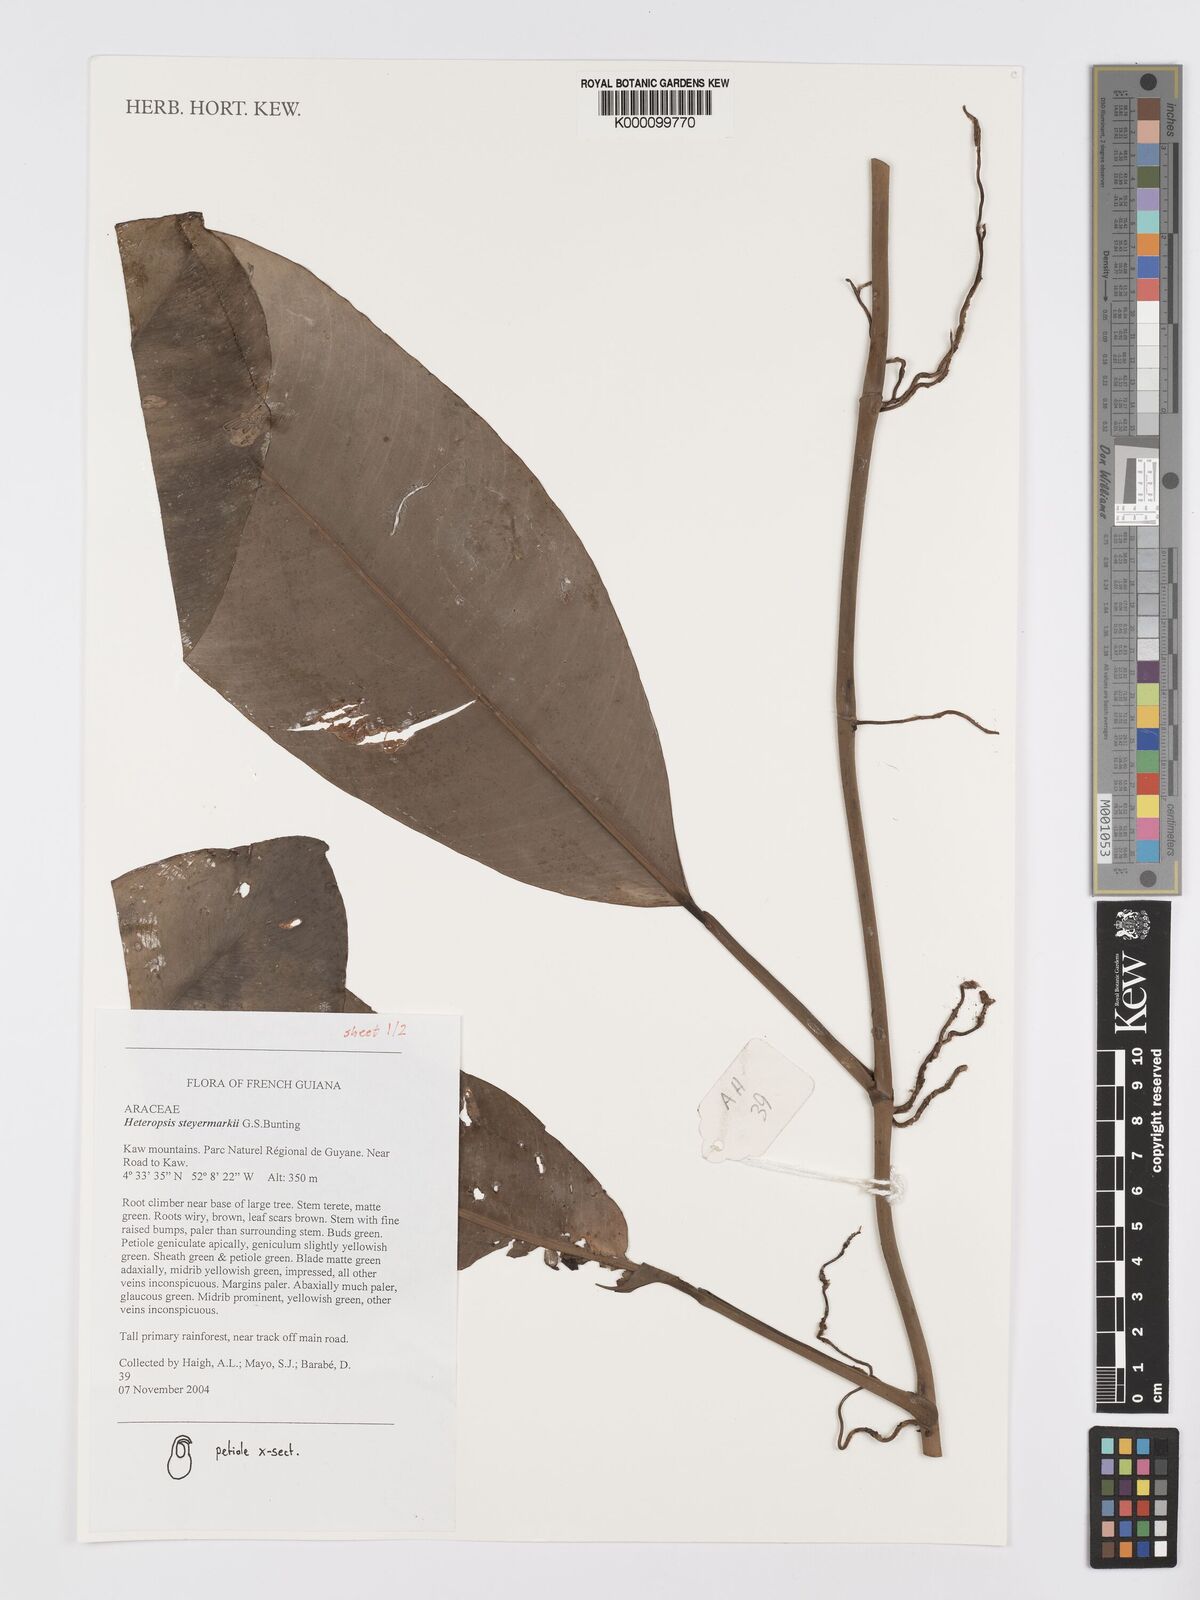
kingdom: Plantae
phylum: Tracheophyta
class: Liliopsida
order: Alismatales
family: Araceae
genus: Heteropsis
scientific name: Heteropsis steyermarkii
